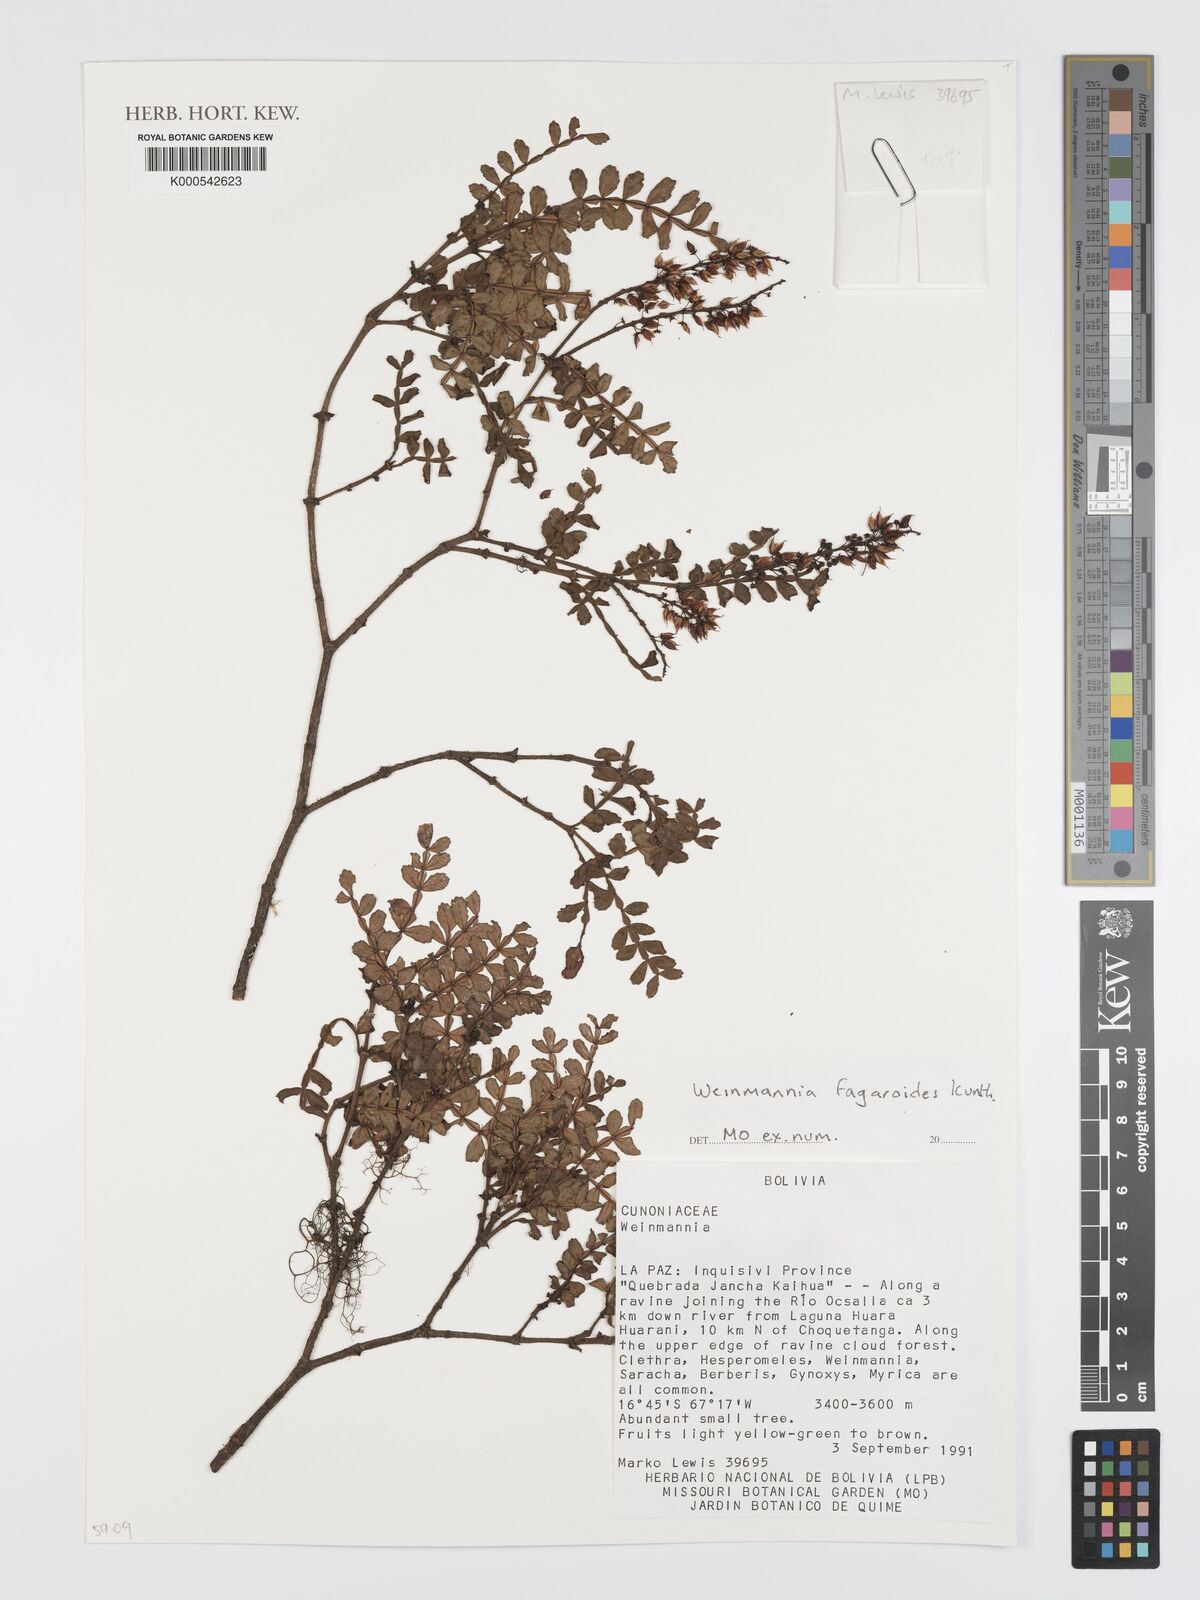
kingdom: Plantae
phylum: Tracheophyta
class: Magnoliopsida
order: Oxalidales
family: Cunoniaceae
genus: Weinmannia
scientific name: Weinmannia microphylla
